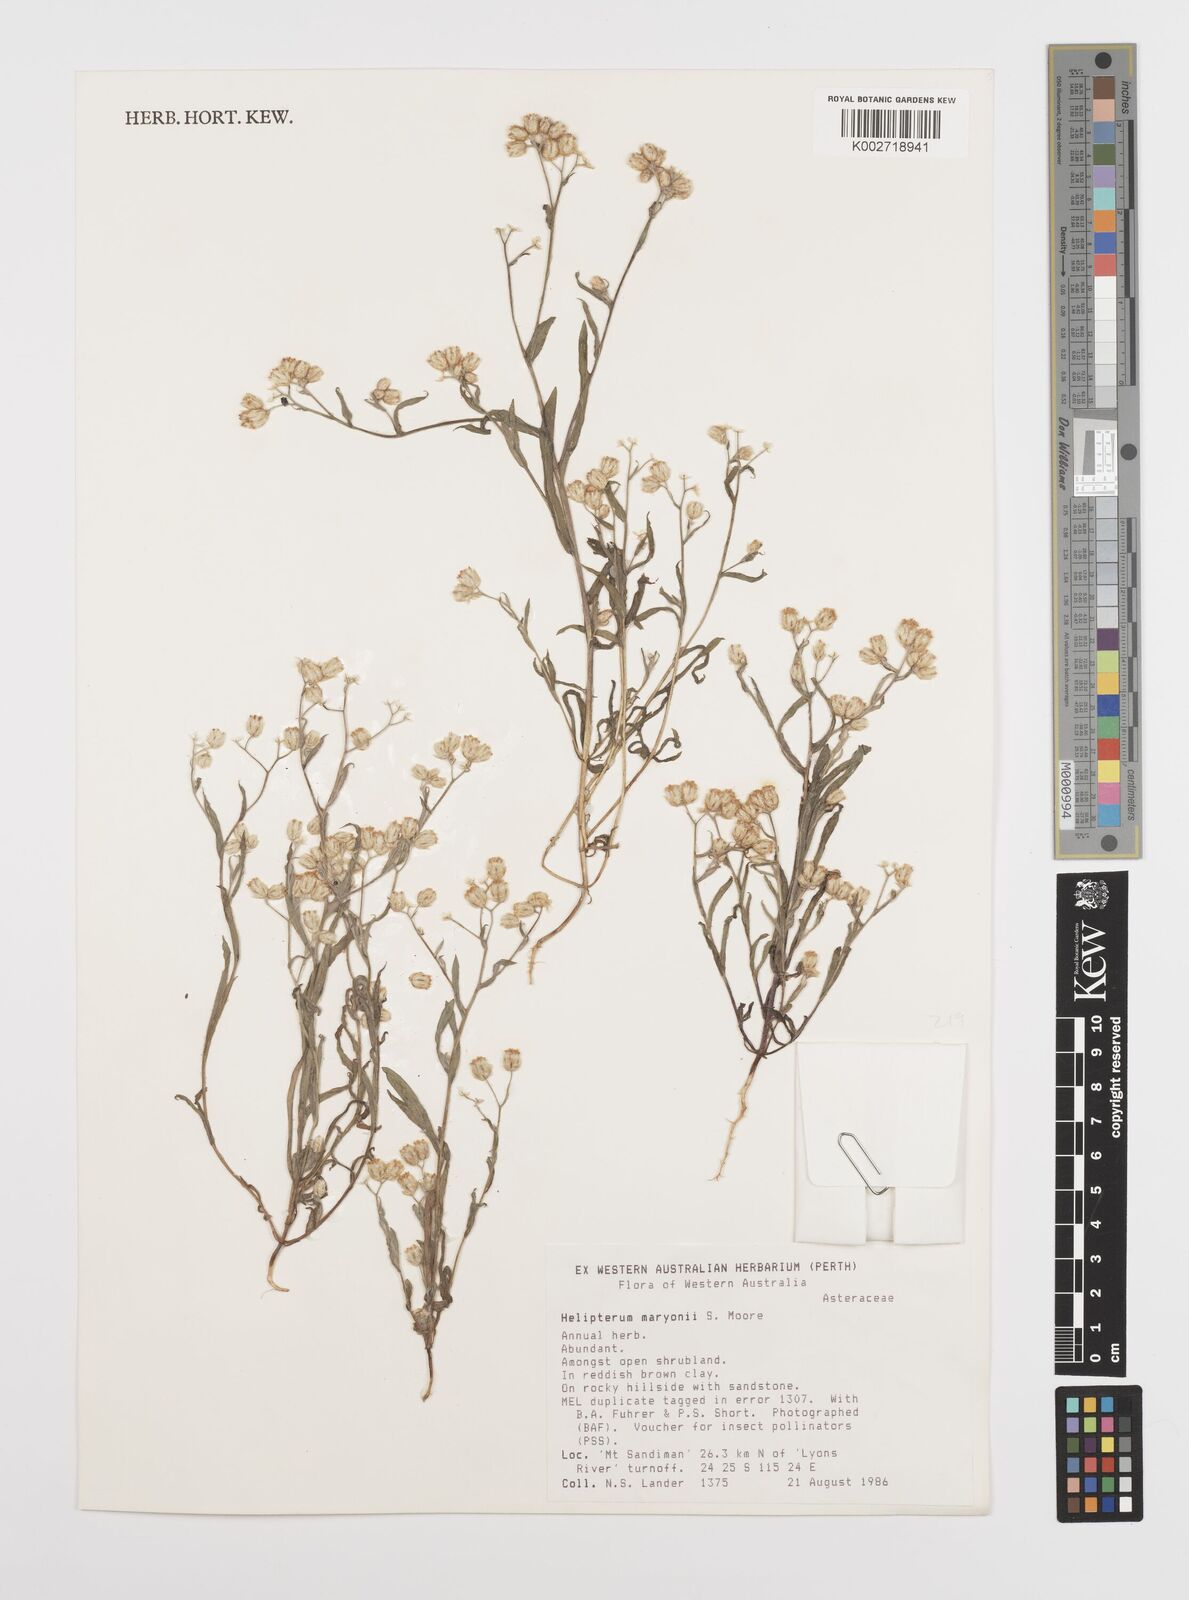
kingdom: Plantae
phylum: Tracheophyta
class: Magnoliopsida
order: Asterales
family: Asteraceae
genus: Rhodanthe
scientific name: Rhodanthe maryonii
